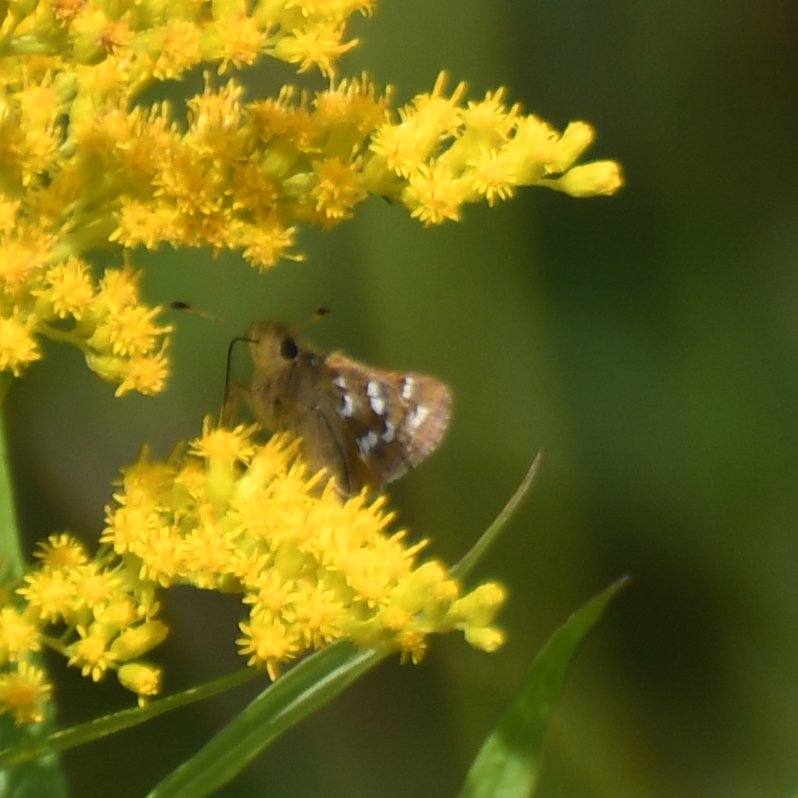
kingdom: Animalia
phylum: Arthropoda
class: Insecta
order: Lepidoptera
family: Hesperiidae
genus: Hesperia
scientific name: Hesperia comma
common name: Common Branded Skipper
